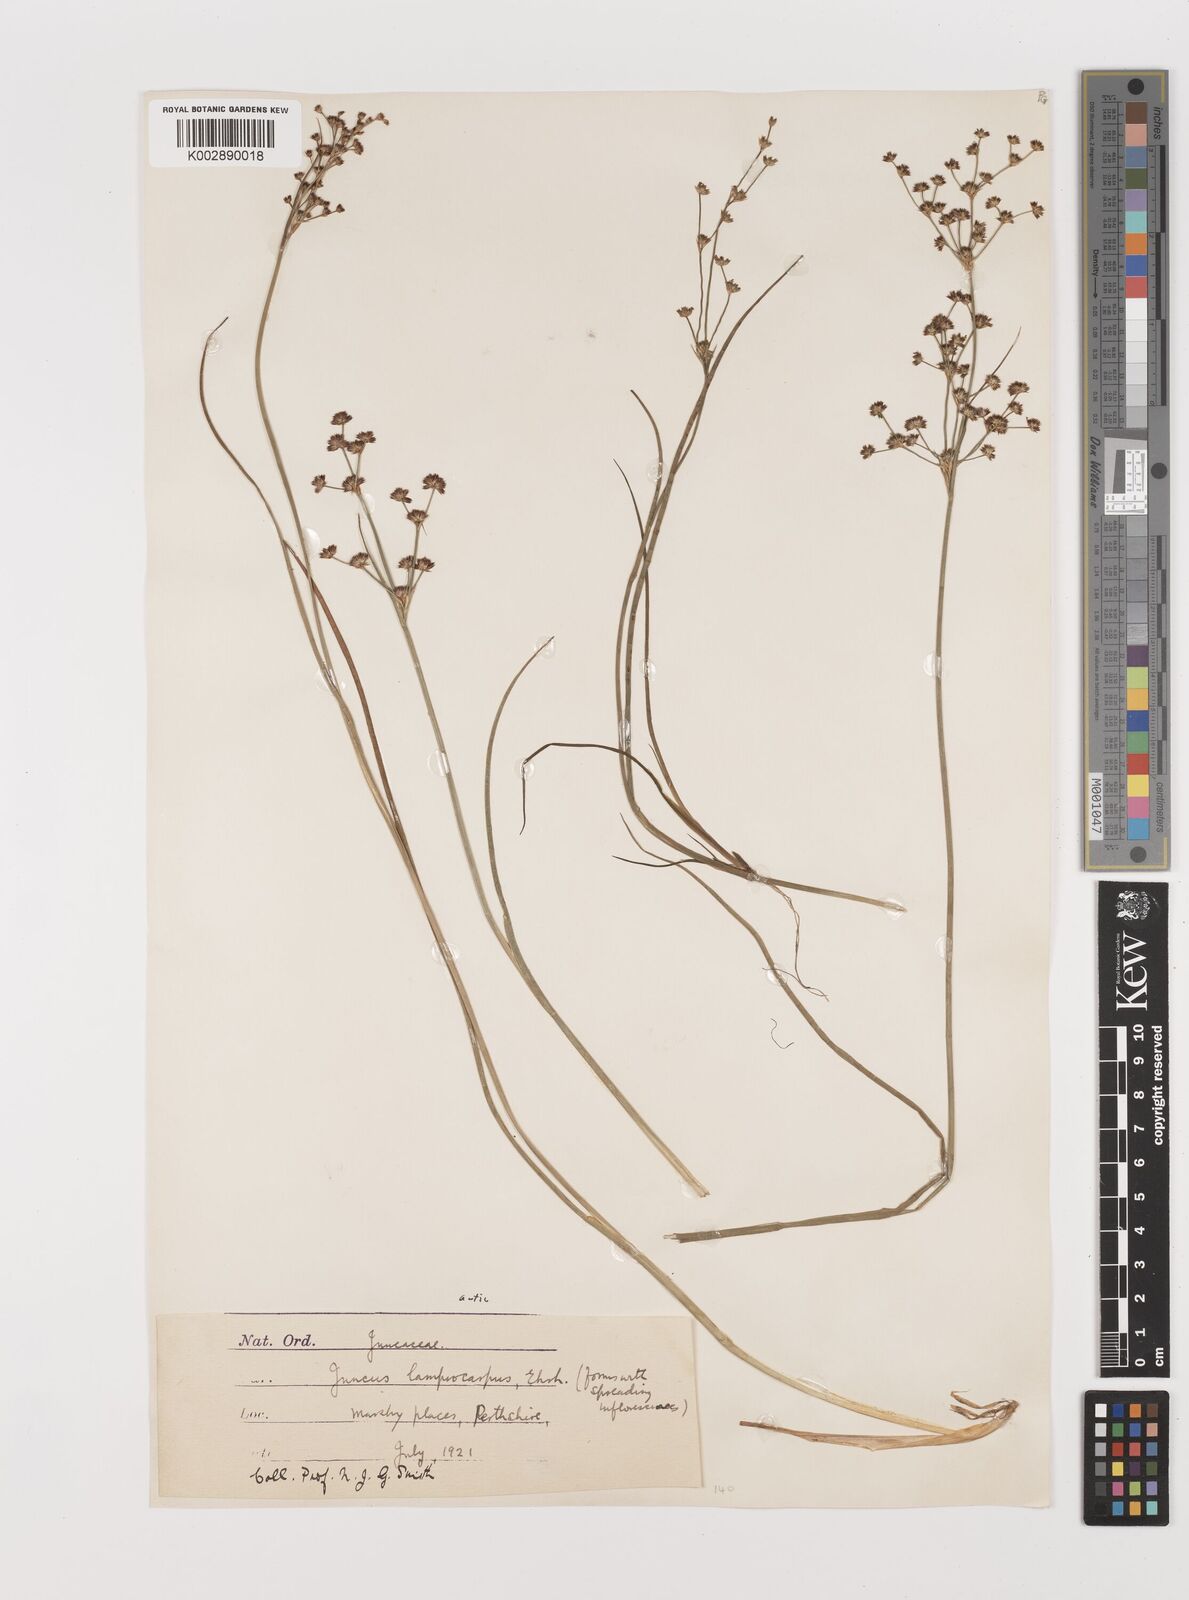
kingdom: Plantae
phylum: Tracheophyta
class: Liliopsida
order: Poales
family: Juncaceae
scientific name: Juncaceae
